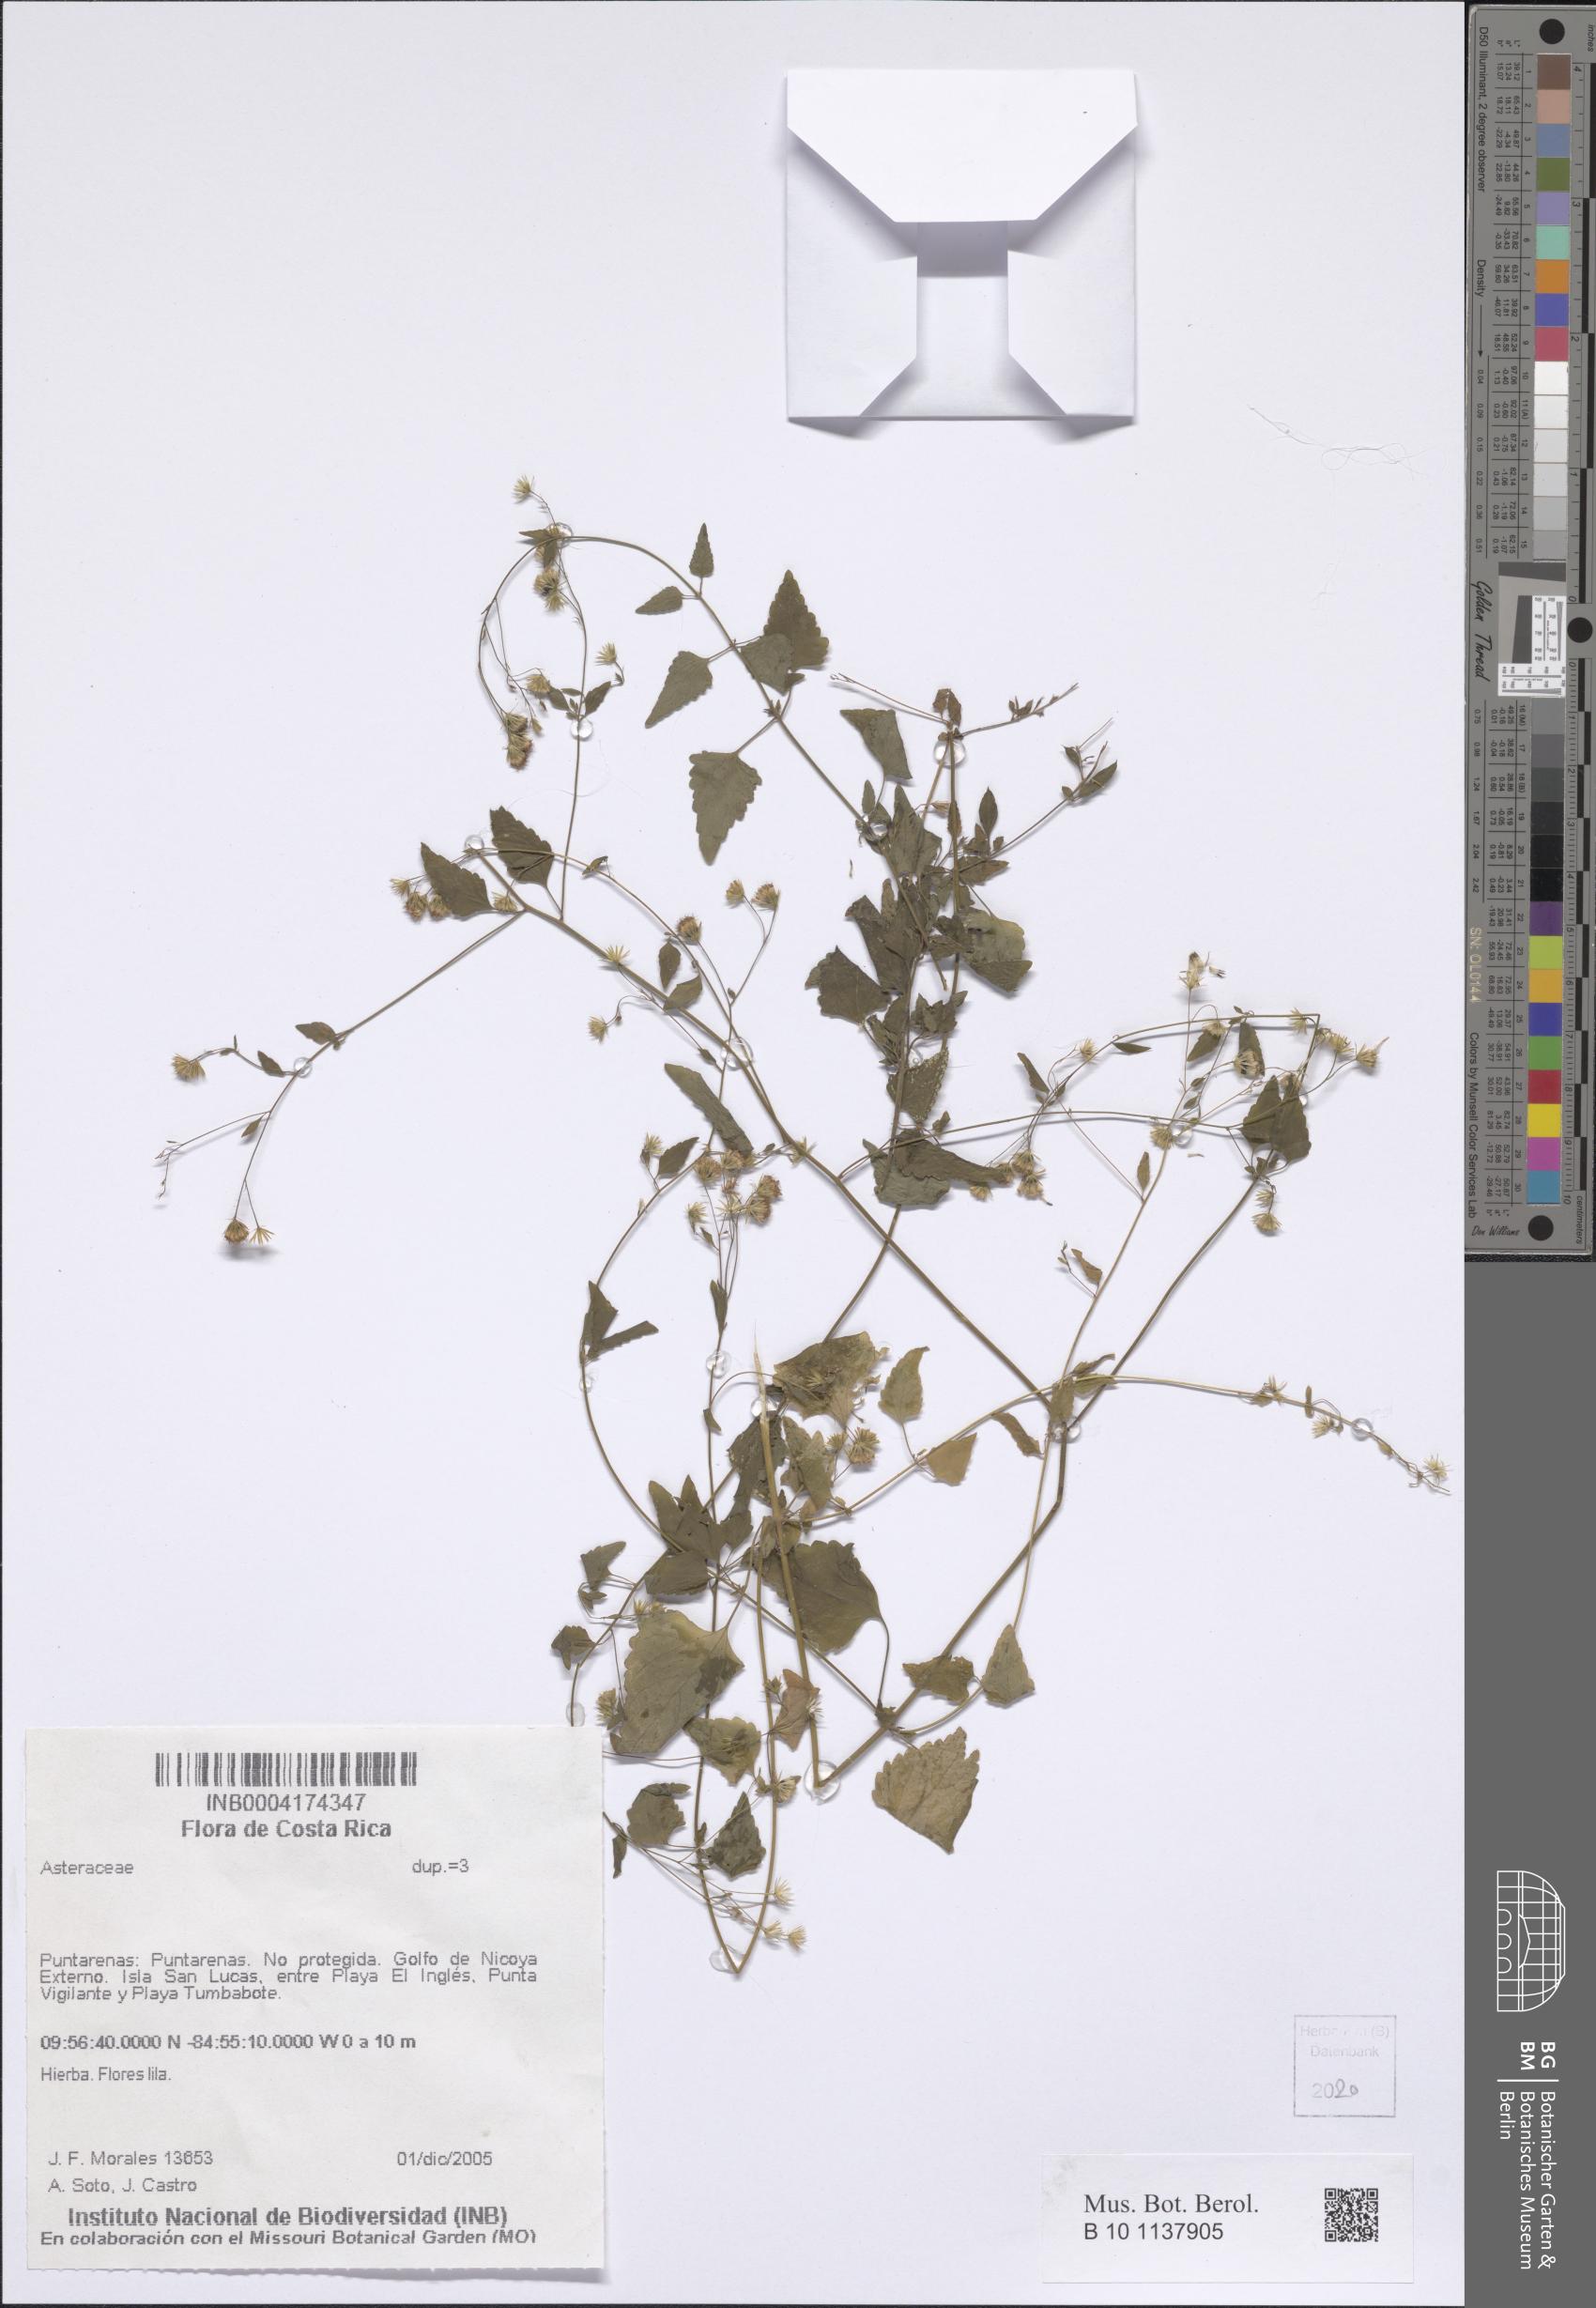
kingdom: Plantae
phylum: Tracheophyta
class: Magnoliopsida
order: Asterales
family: Asteraceae
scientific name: Asteraceae
